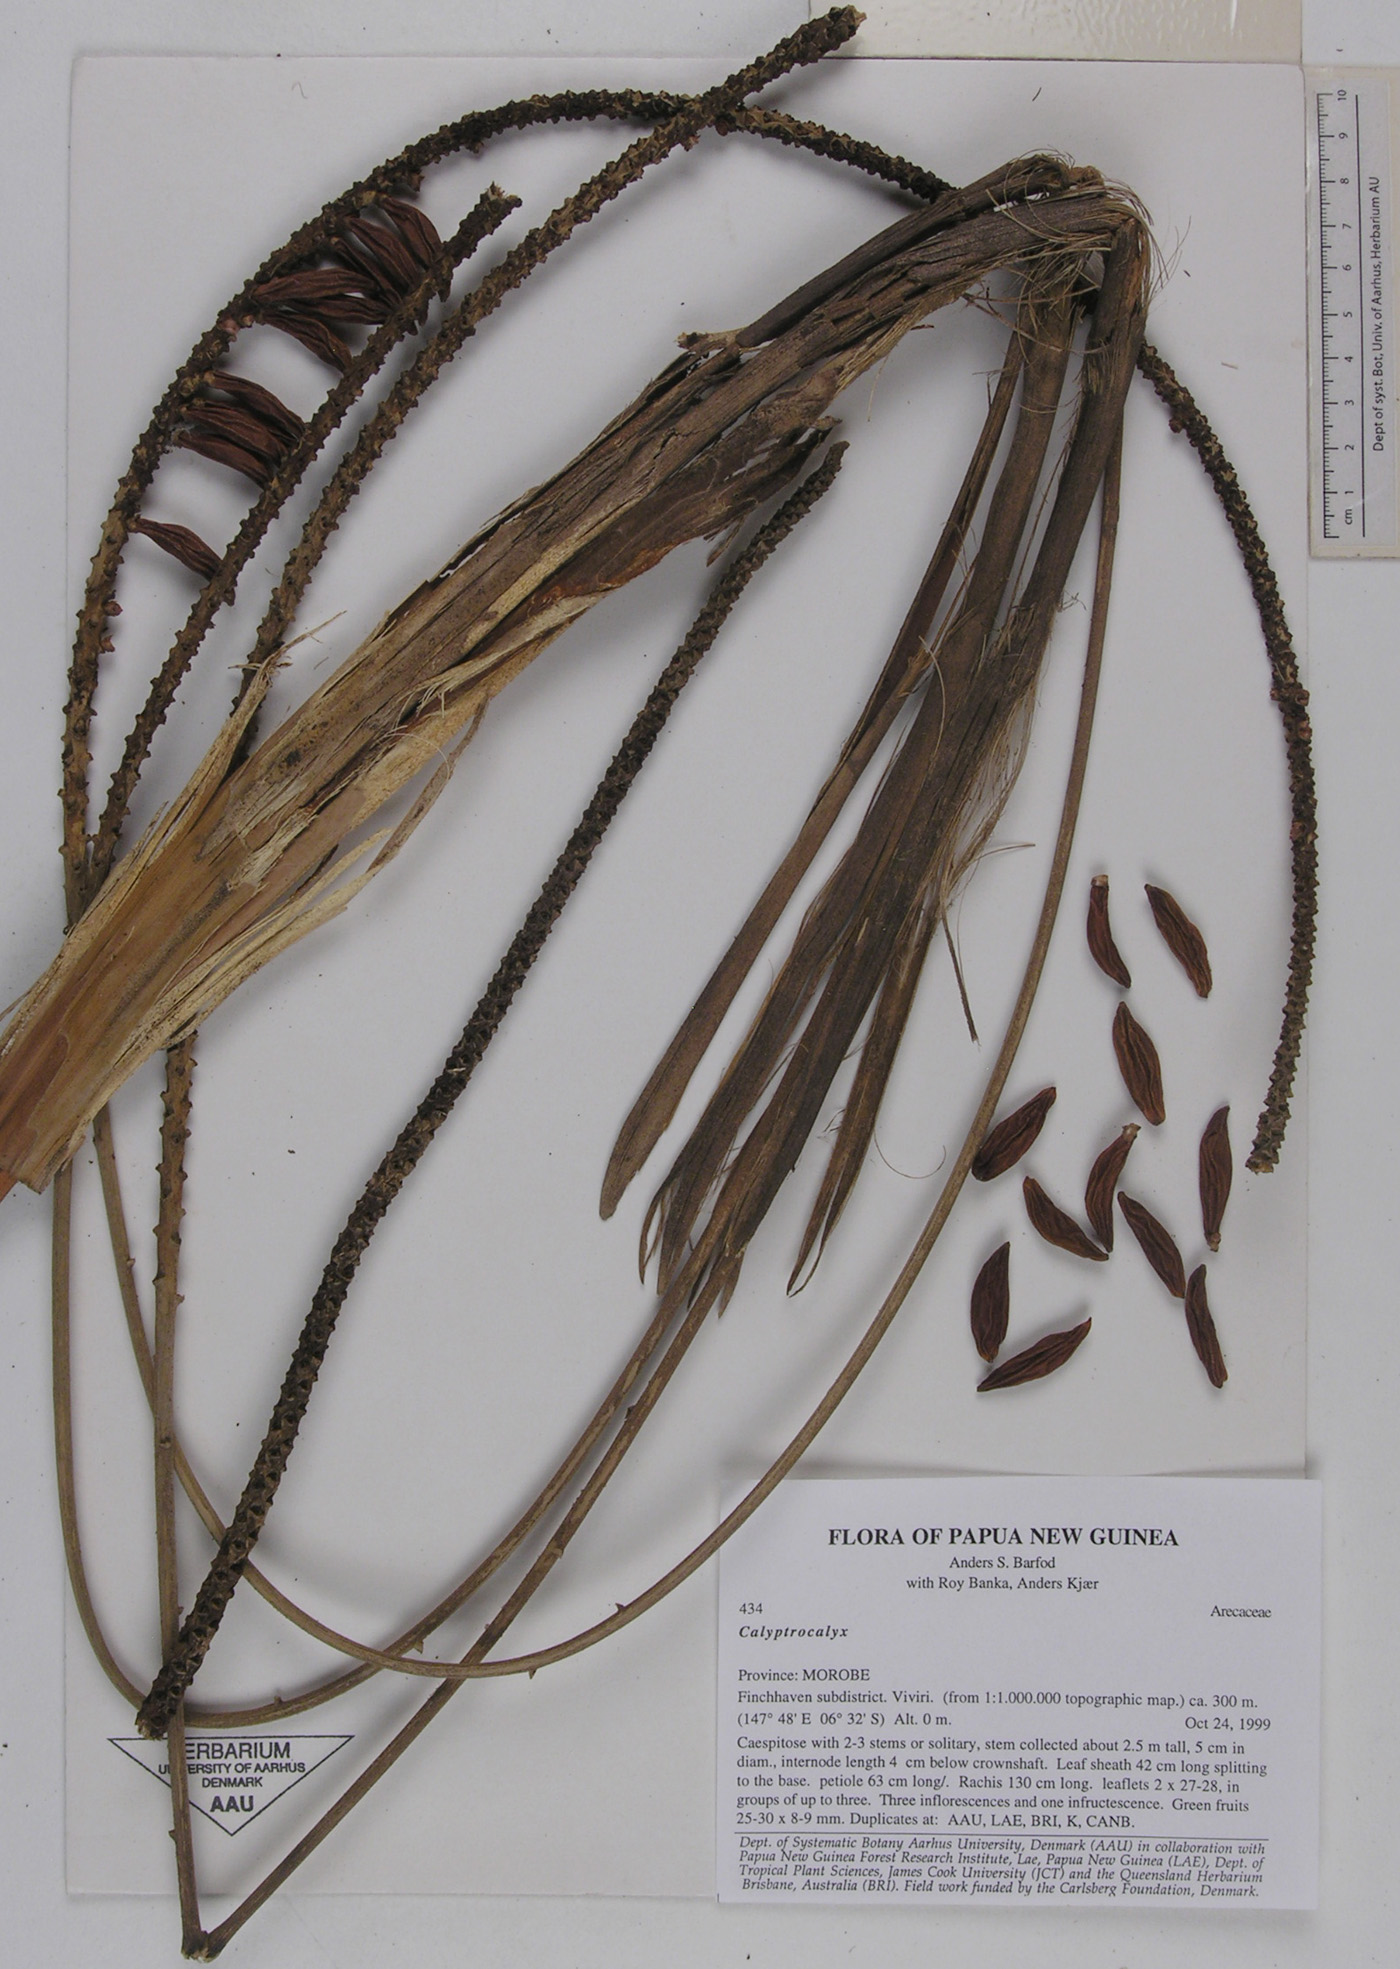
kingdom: Plantae
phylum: Tracheophyta
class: Liliopsida
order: Arecales
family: Arecaceae
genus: Calyptrocalyx
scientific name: Calyptrocalyx
